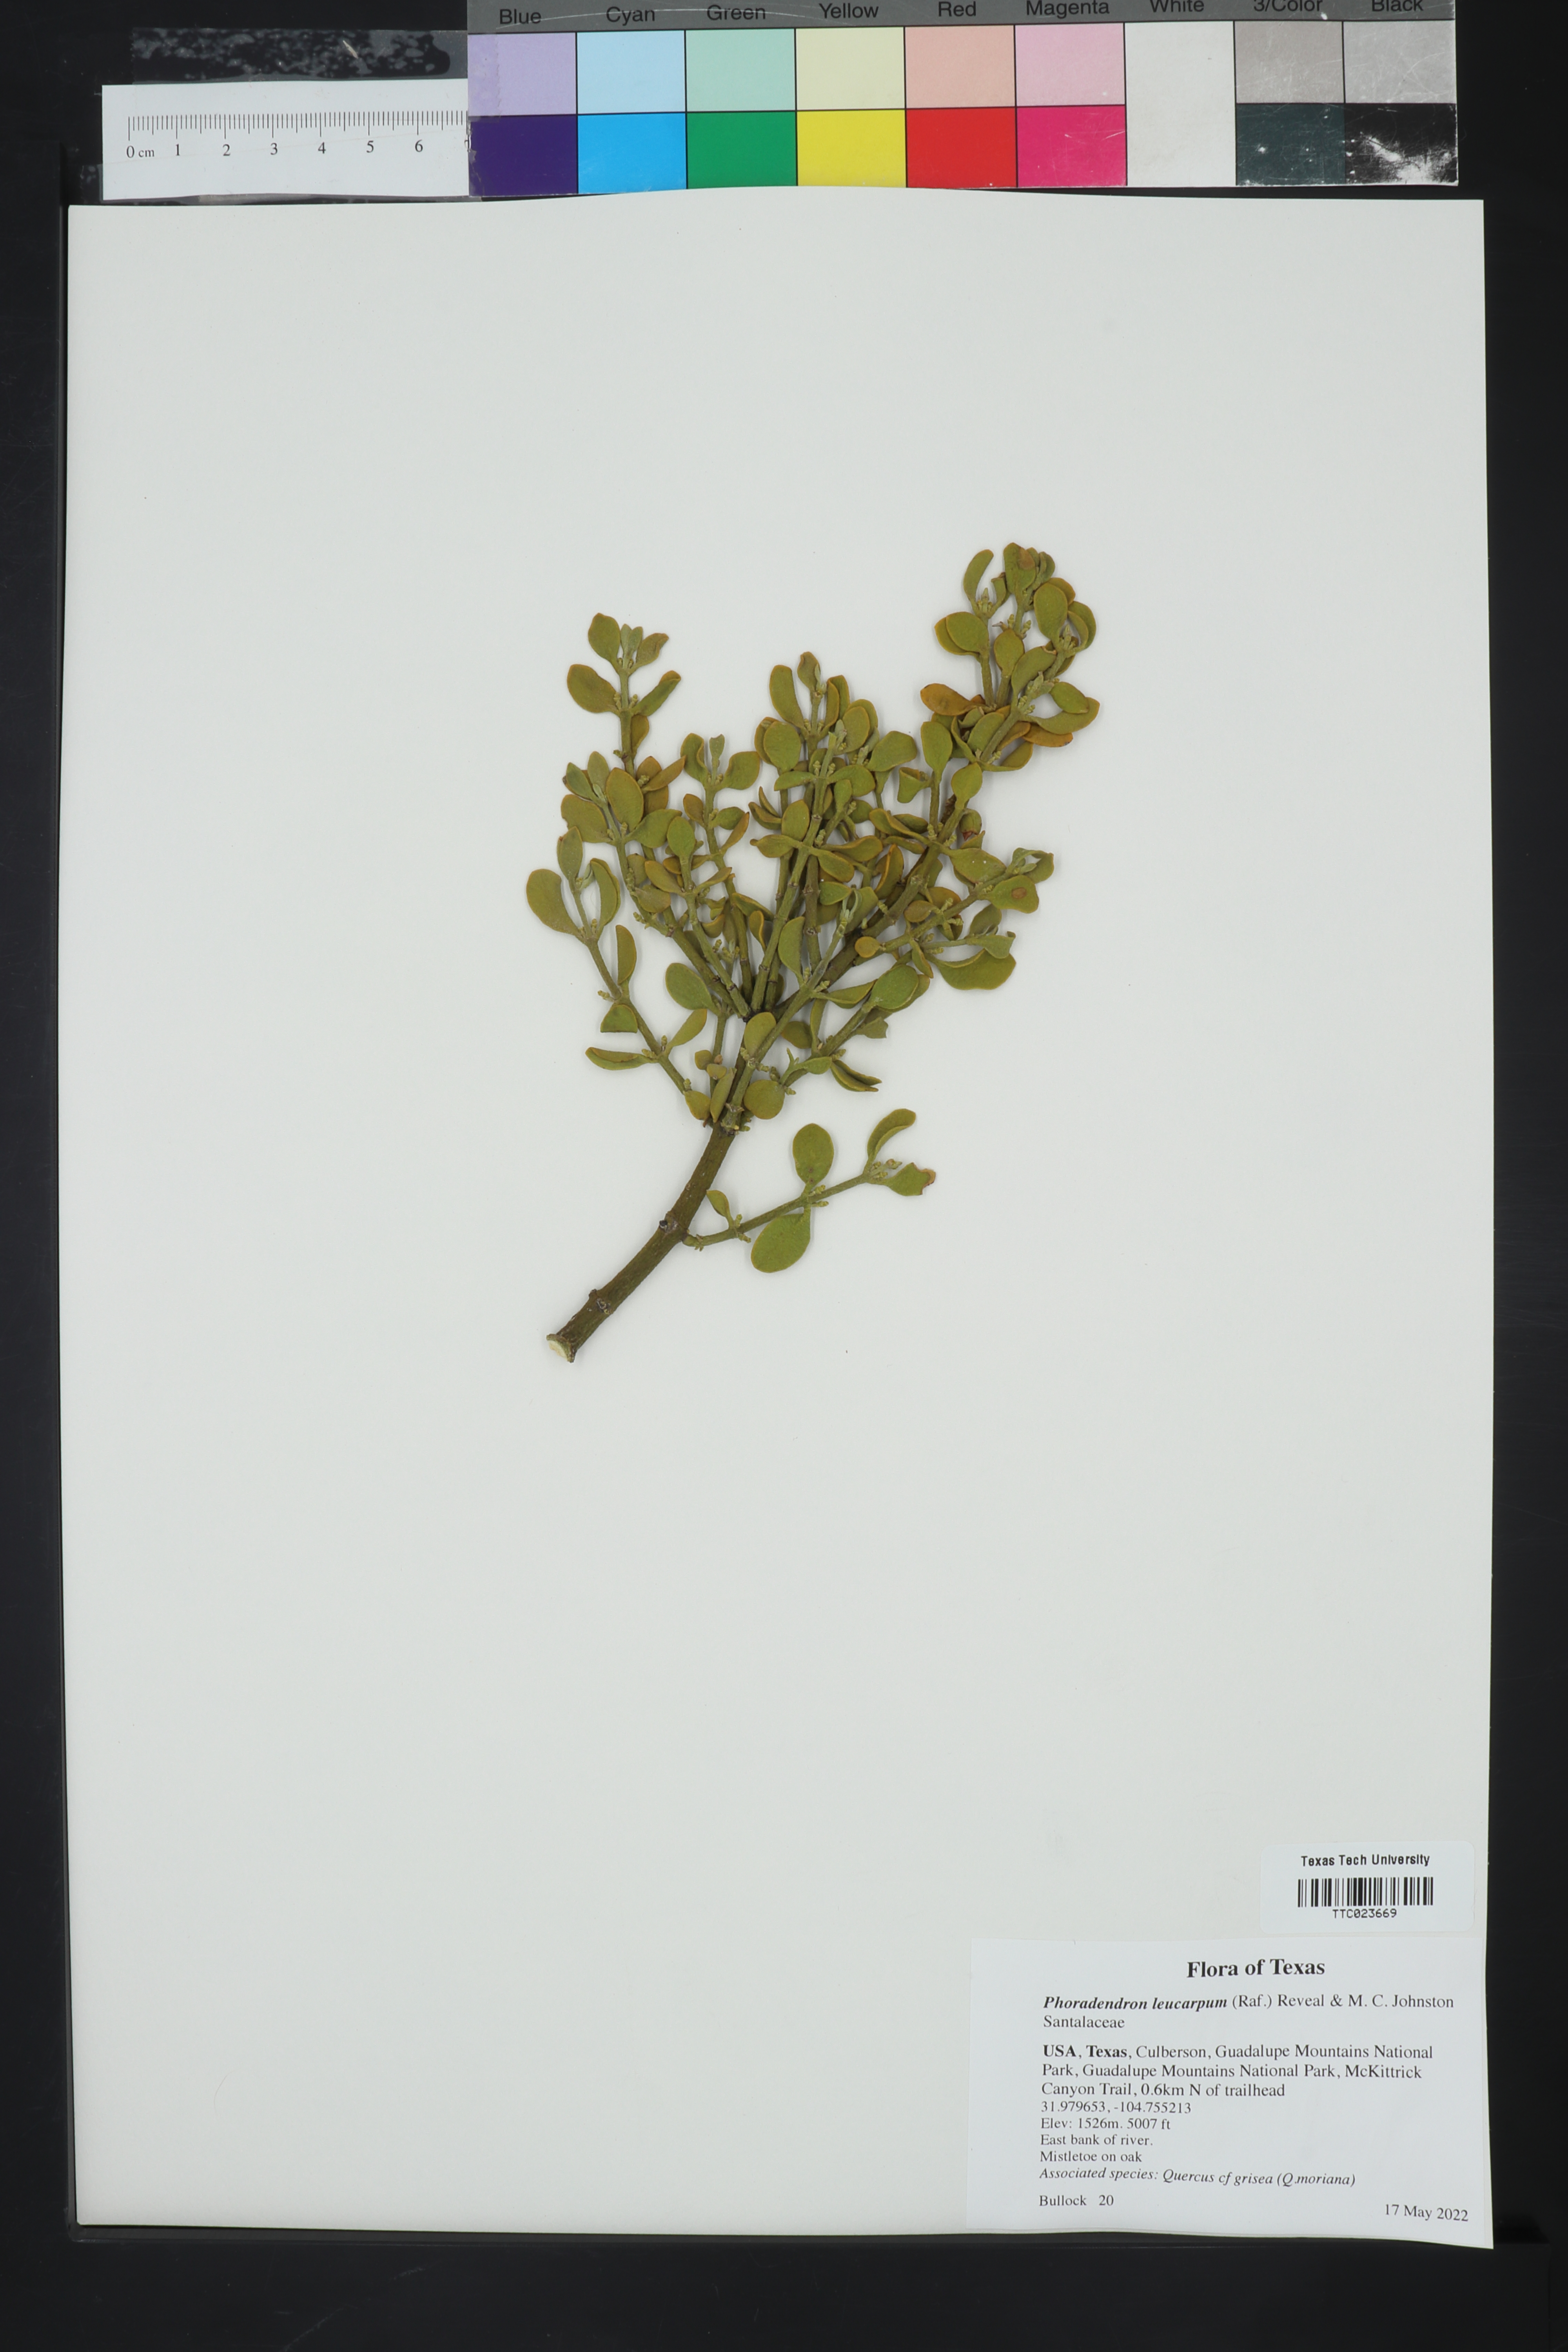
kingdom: Plantae
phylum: Tracheophyta
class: Magnoliopsida
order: Santalales
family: Viscaceae
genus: Phoradendron
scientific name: Phoradendron leucarpum
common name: Pacific mistletoe
